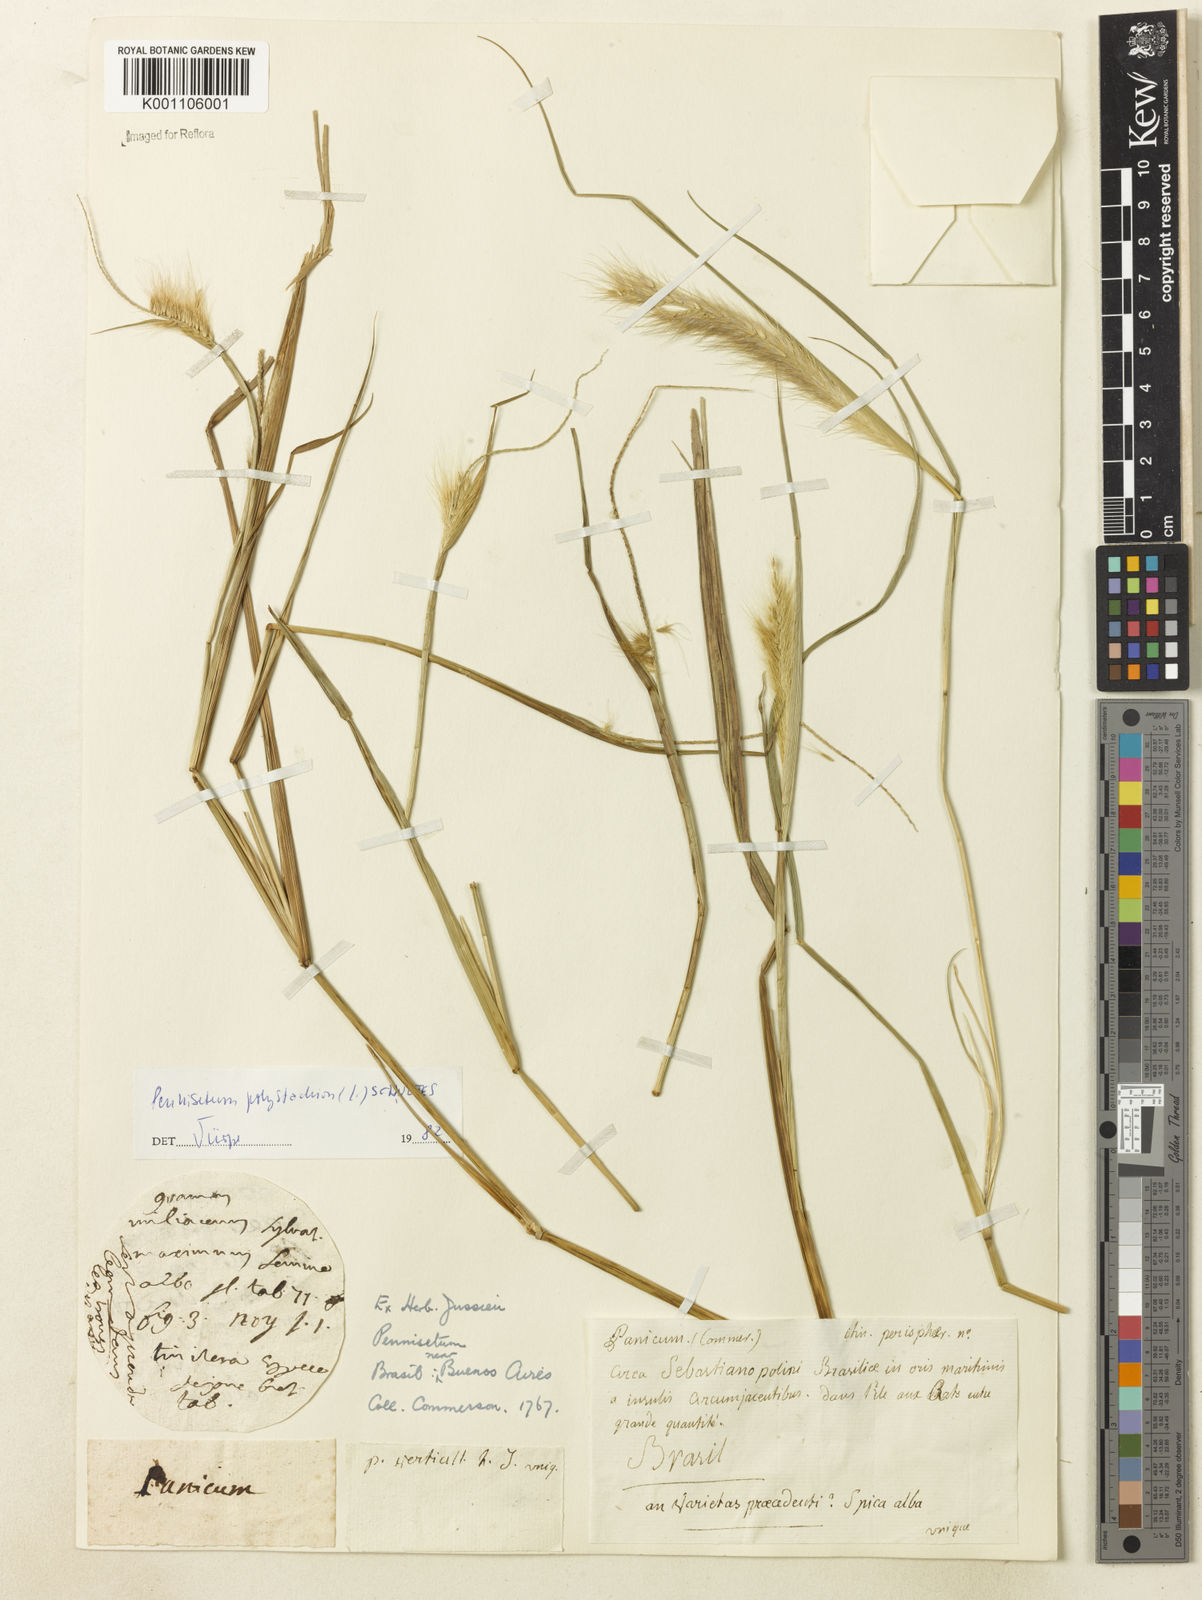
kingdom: Plantae
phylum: Tracheophyta
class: Liliopsida
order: Poales
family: Poaceae
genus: Setaria
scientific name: Setaria parviflora
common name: Knotroot bristle-grass
